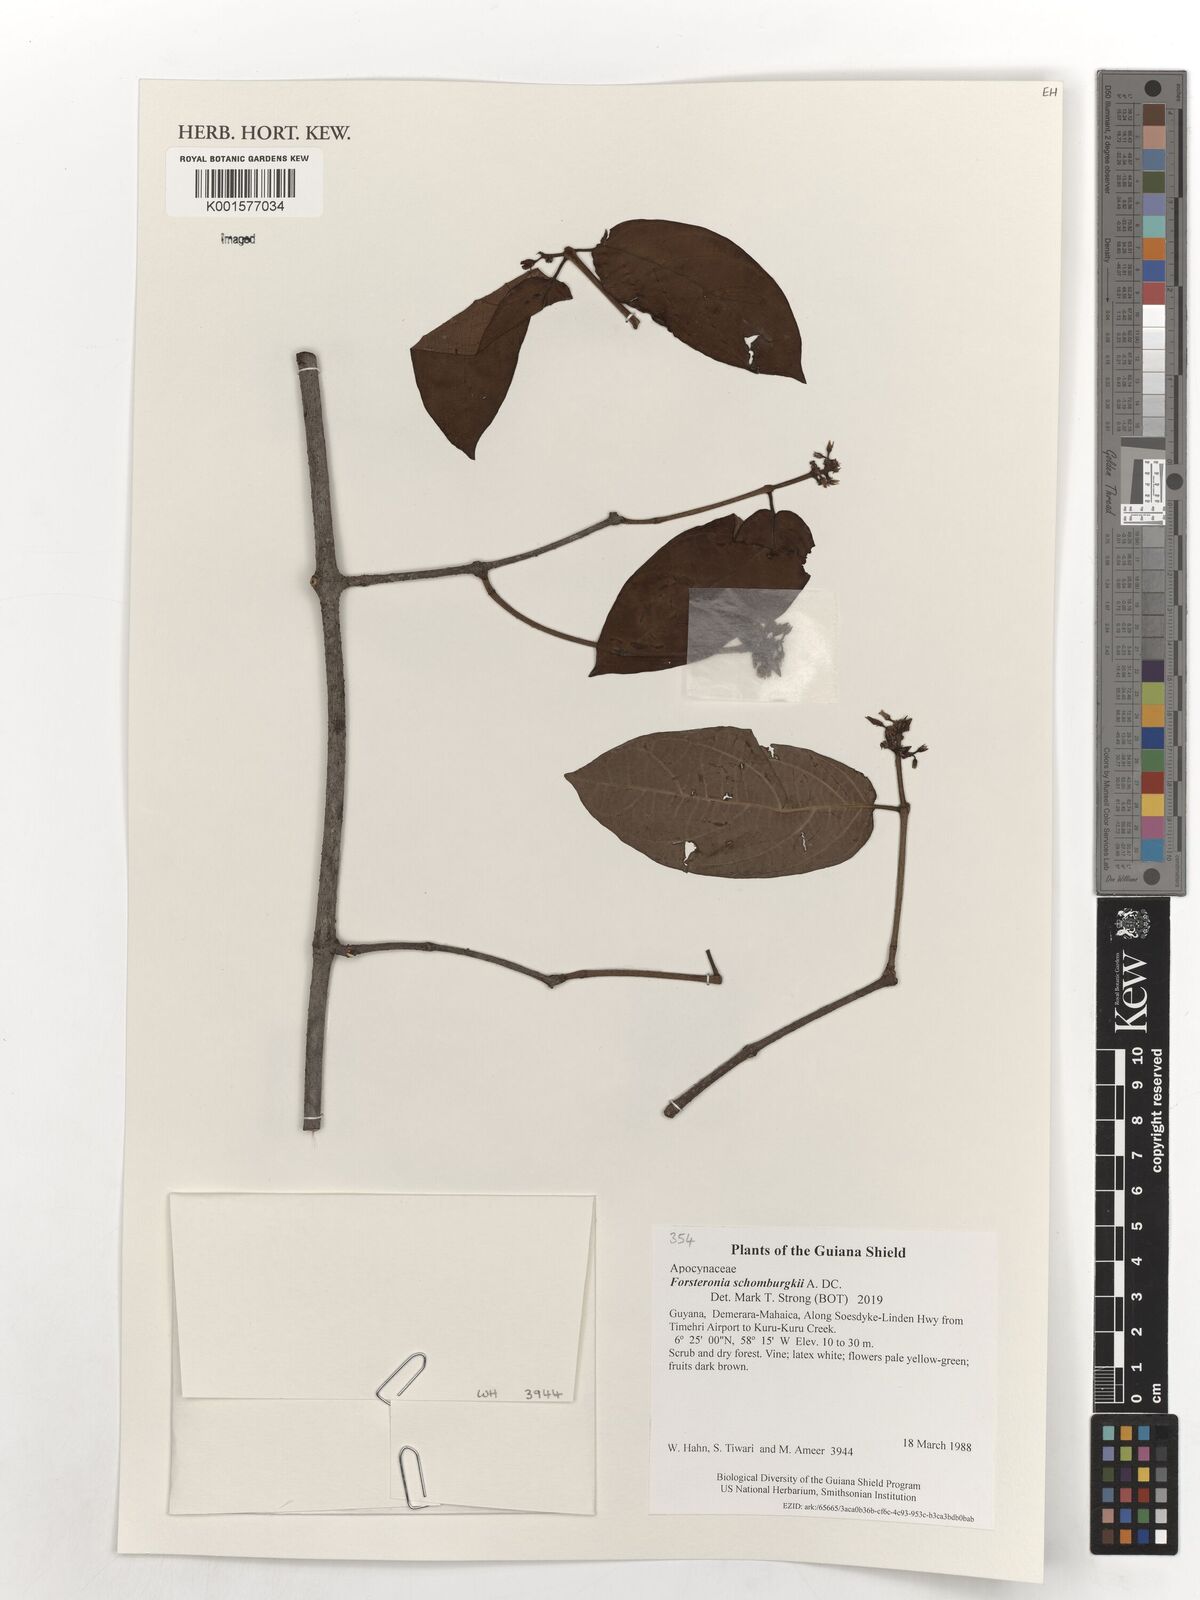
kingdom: Plantae
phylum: Tracheophyta
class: Magnoliopsida
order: Gentianales
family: Apocynaceae
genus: Forsteronia
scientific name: Forsteronia schomburgkii
